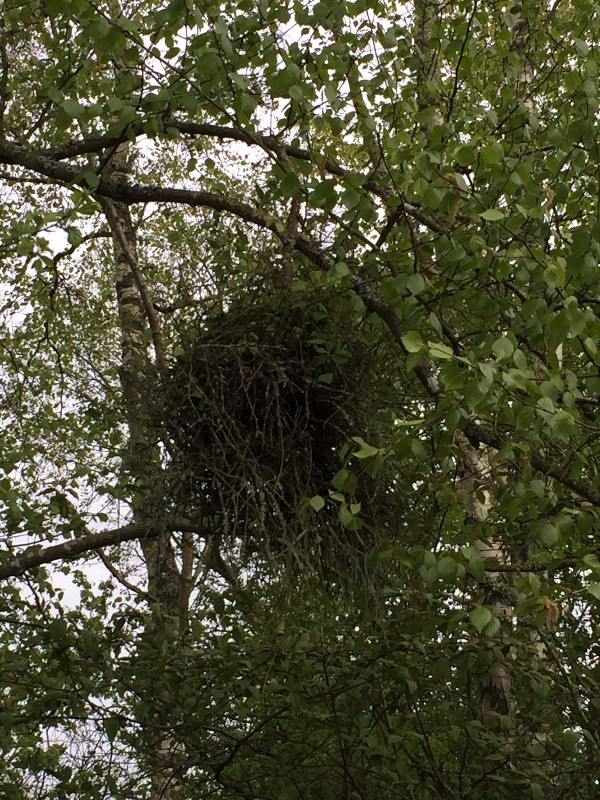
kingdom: Fungi
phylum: Ascomycota
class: Taphrinomycetes
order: Taphrinales
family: Taphrinaceae
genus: Taphrina
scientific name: Taphrina betulina
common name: hekse-sækdug
